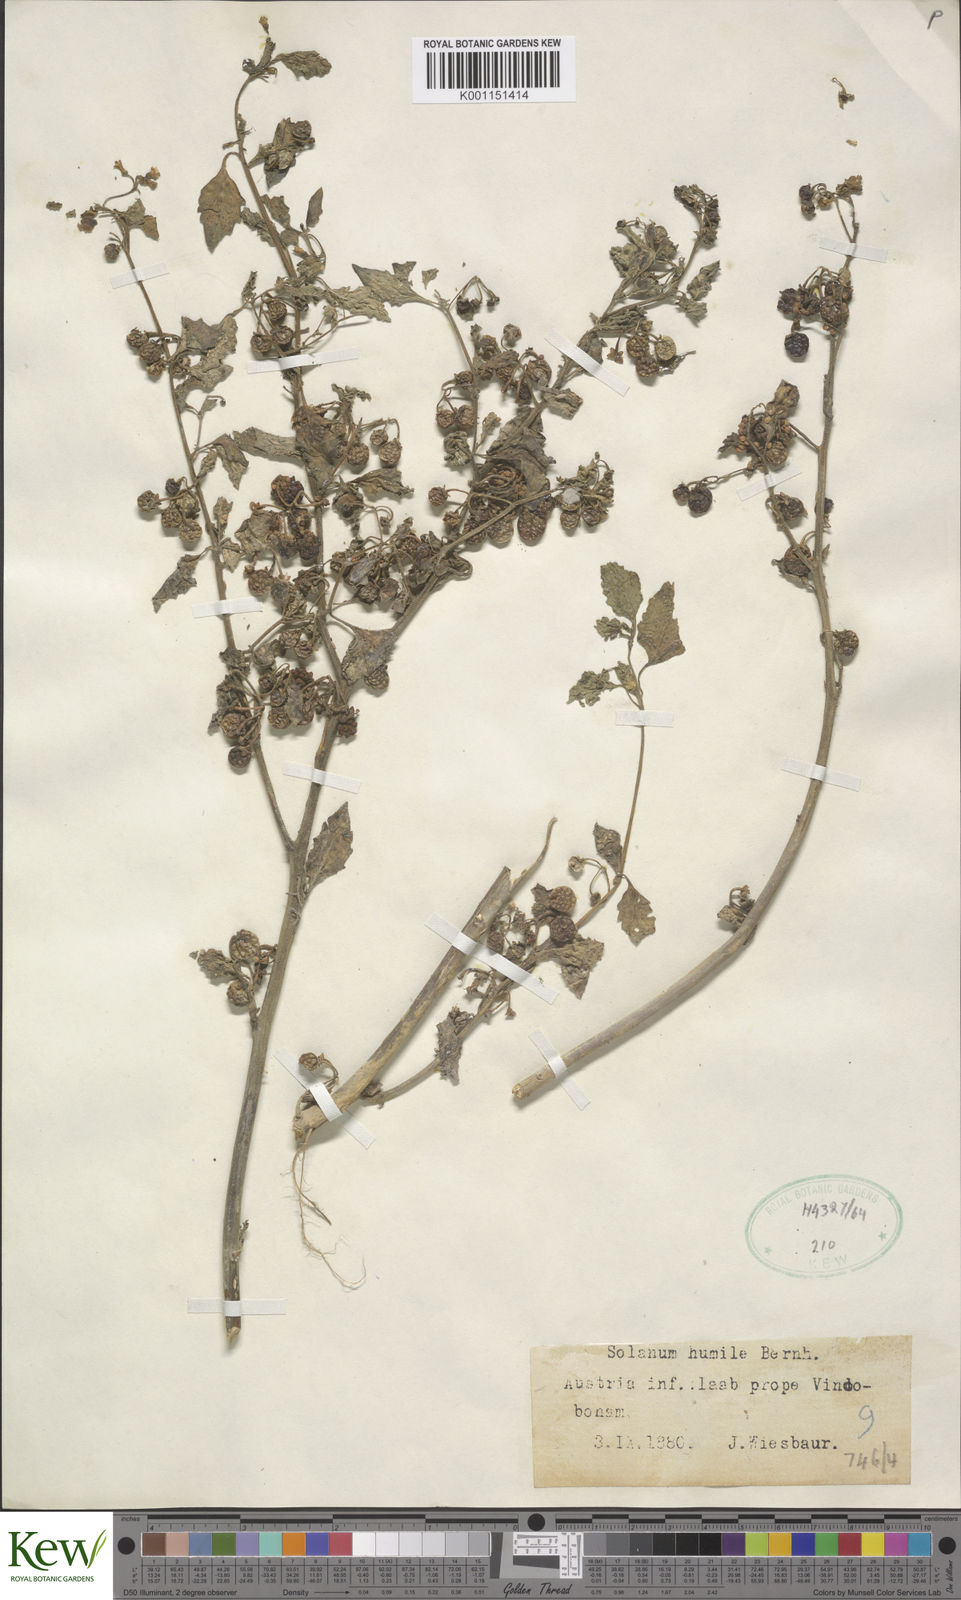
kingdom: Plantae
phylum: Tracheophyta
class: Magnoliopsida
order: Solanales
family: Solanaceae
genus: Solanum
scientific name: Solanum villosum
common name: Red nightshade
